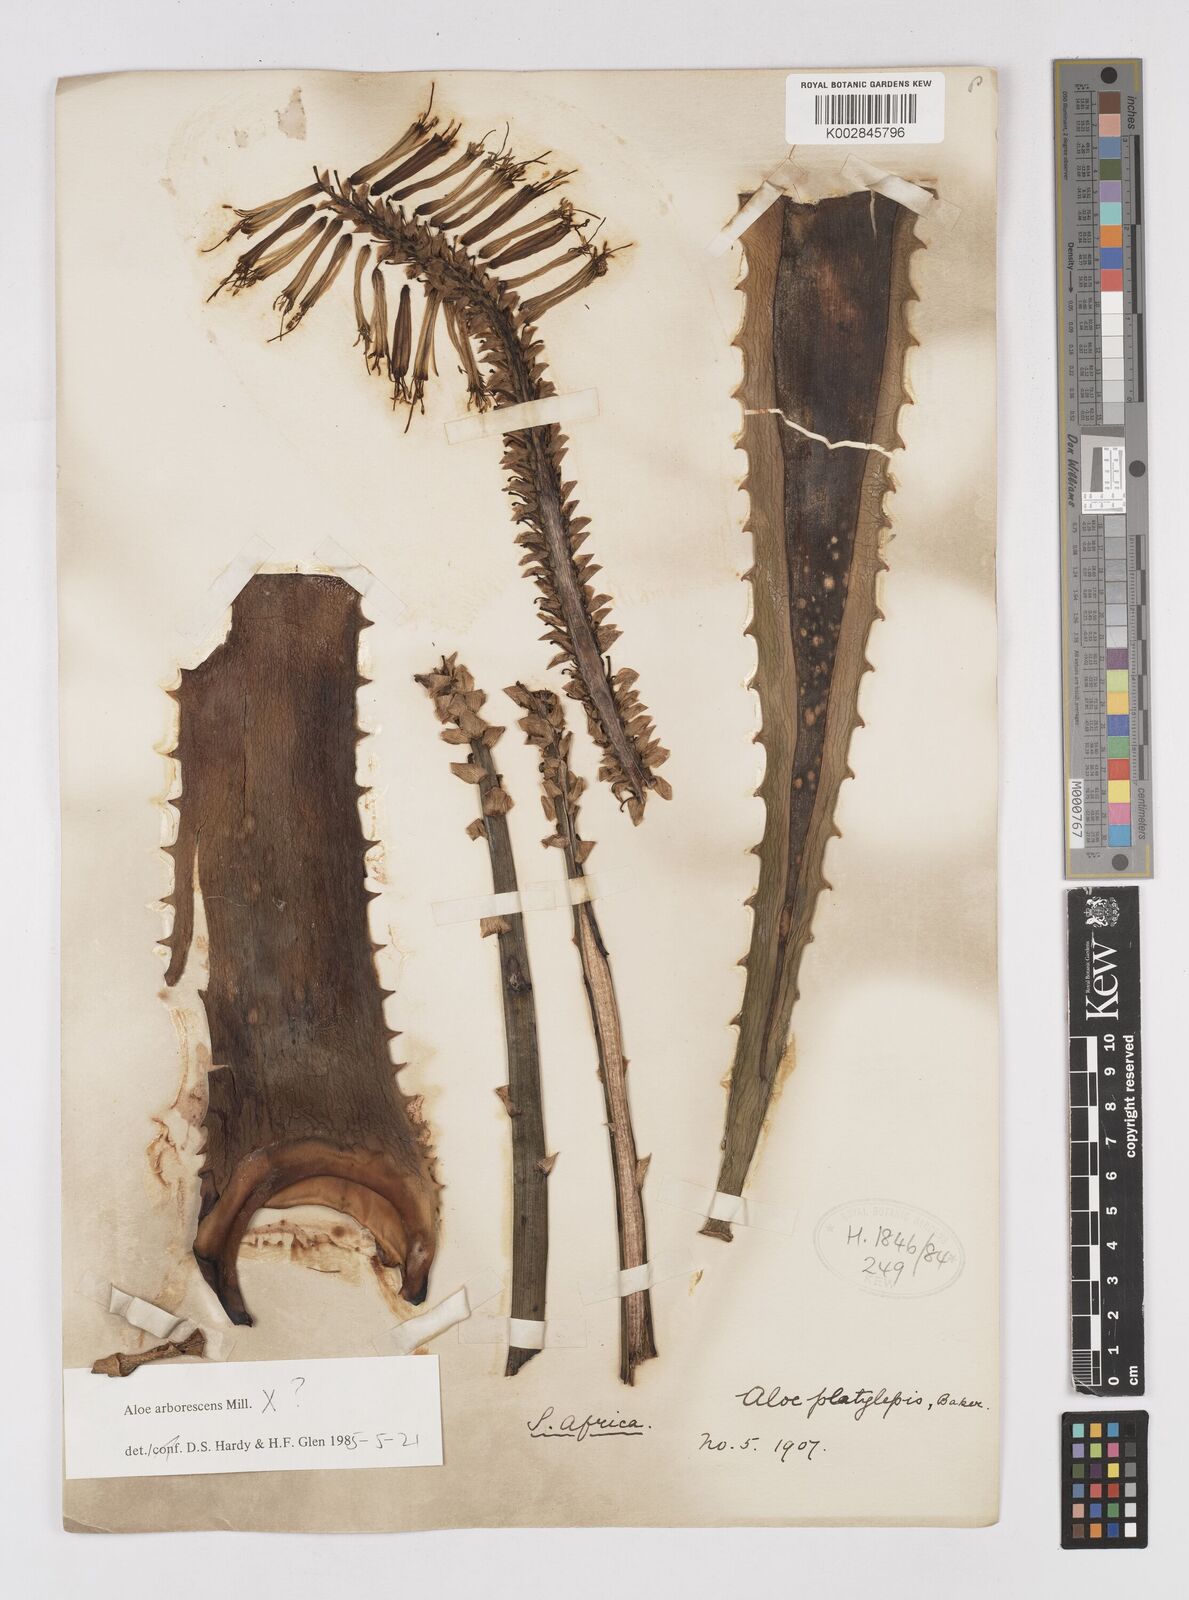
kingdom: Plantae
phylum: Tracheophyta
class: Liliopsida
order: Asparagales
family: Asphodelaceae
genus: Aloe
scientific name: Aloe arborescens
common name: Candelabra aloe
